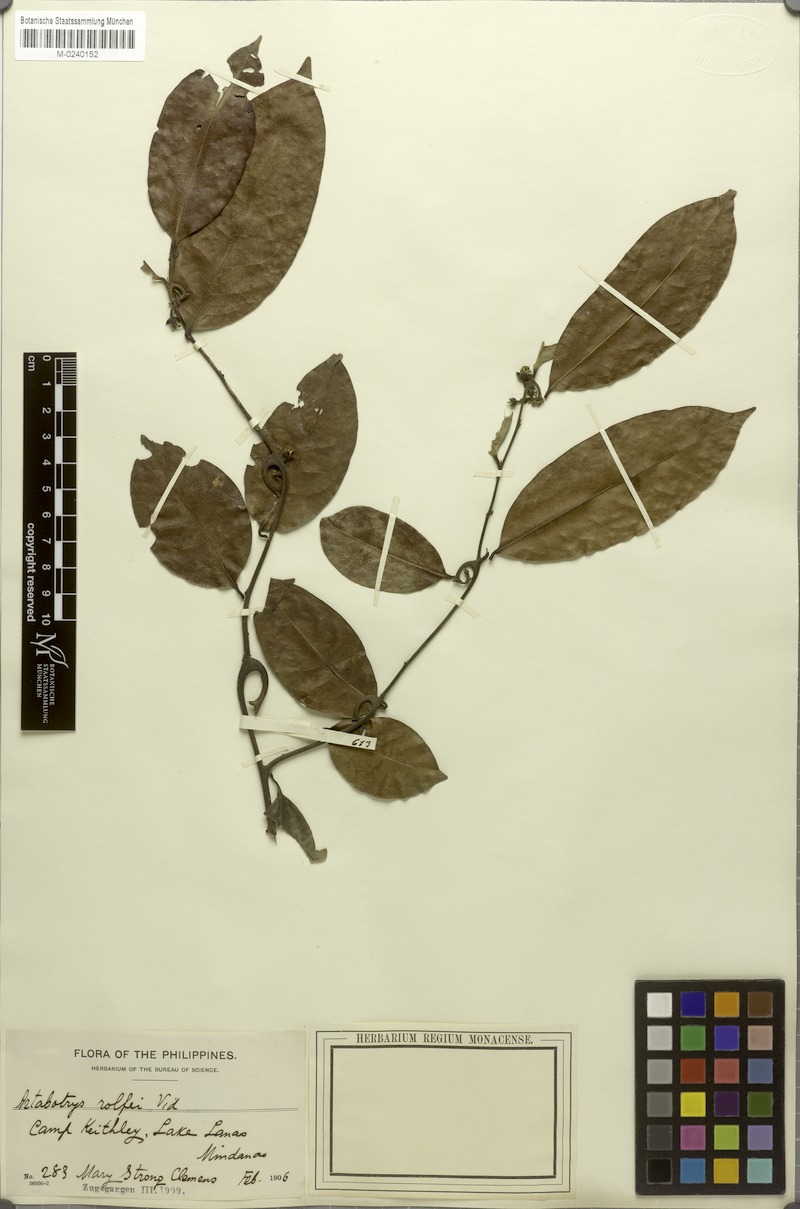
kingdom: Plantae
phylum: Tracheophyta
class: Magnoliopsida
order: Magnoliales
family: Annonaceae
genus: Artabotrys
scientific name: Artabotrys suaveolens
